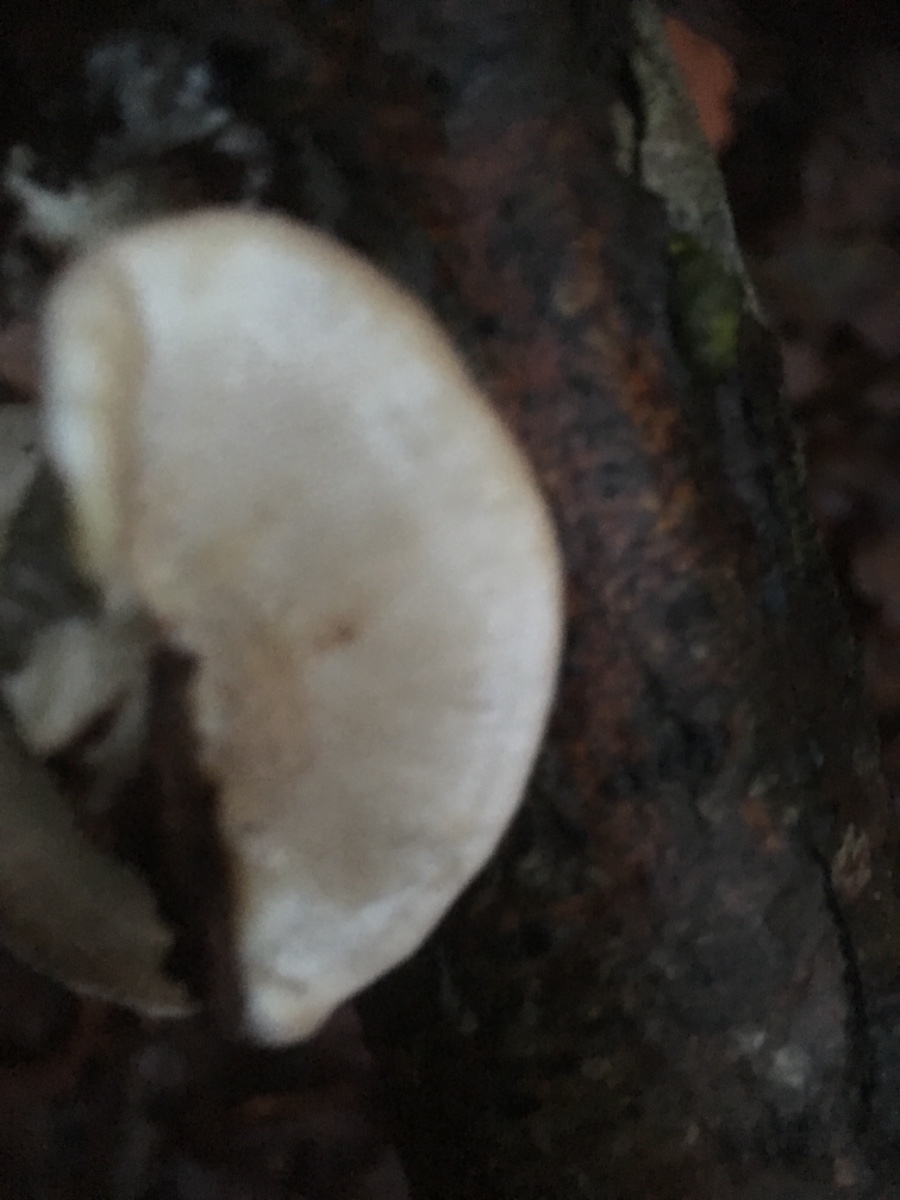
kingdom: Fungi
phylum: Basidiomycota
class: Agaricomycetes
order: Polyporales
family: Polyporaceae
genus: Trametes
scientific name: Trametes hirsuta
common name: håret læderporesvamp
